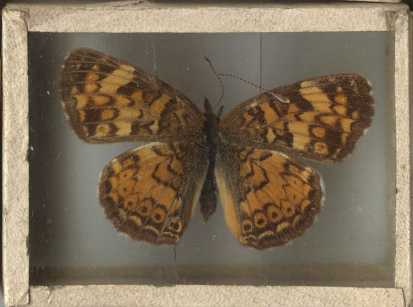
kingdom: Animalia
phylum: Arthropoda
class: Insecta
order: Lepidoptera
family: Nymphalidae
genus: Phyciodes
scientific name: Phyciodes tharos
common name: Pearl Crescent
